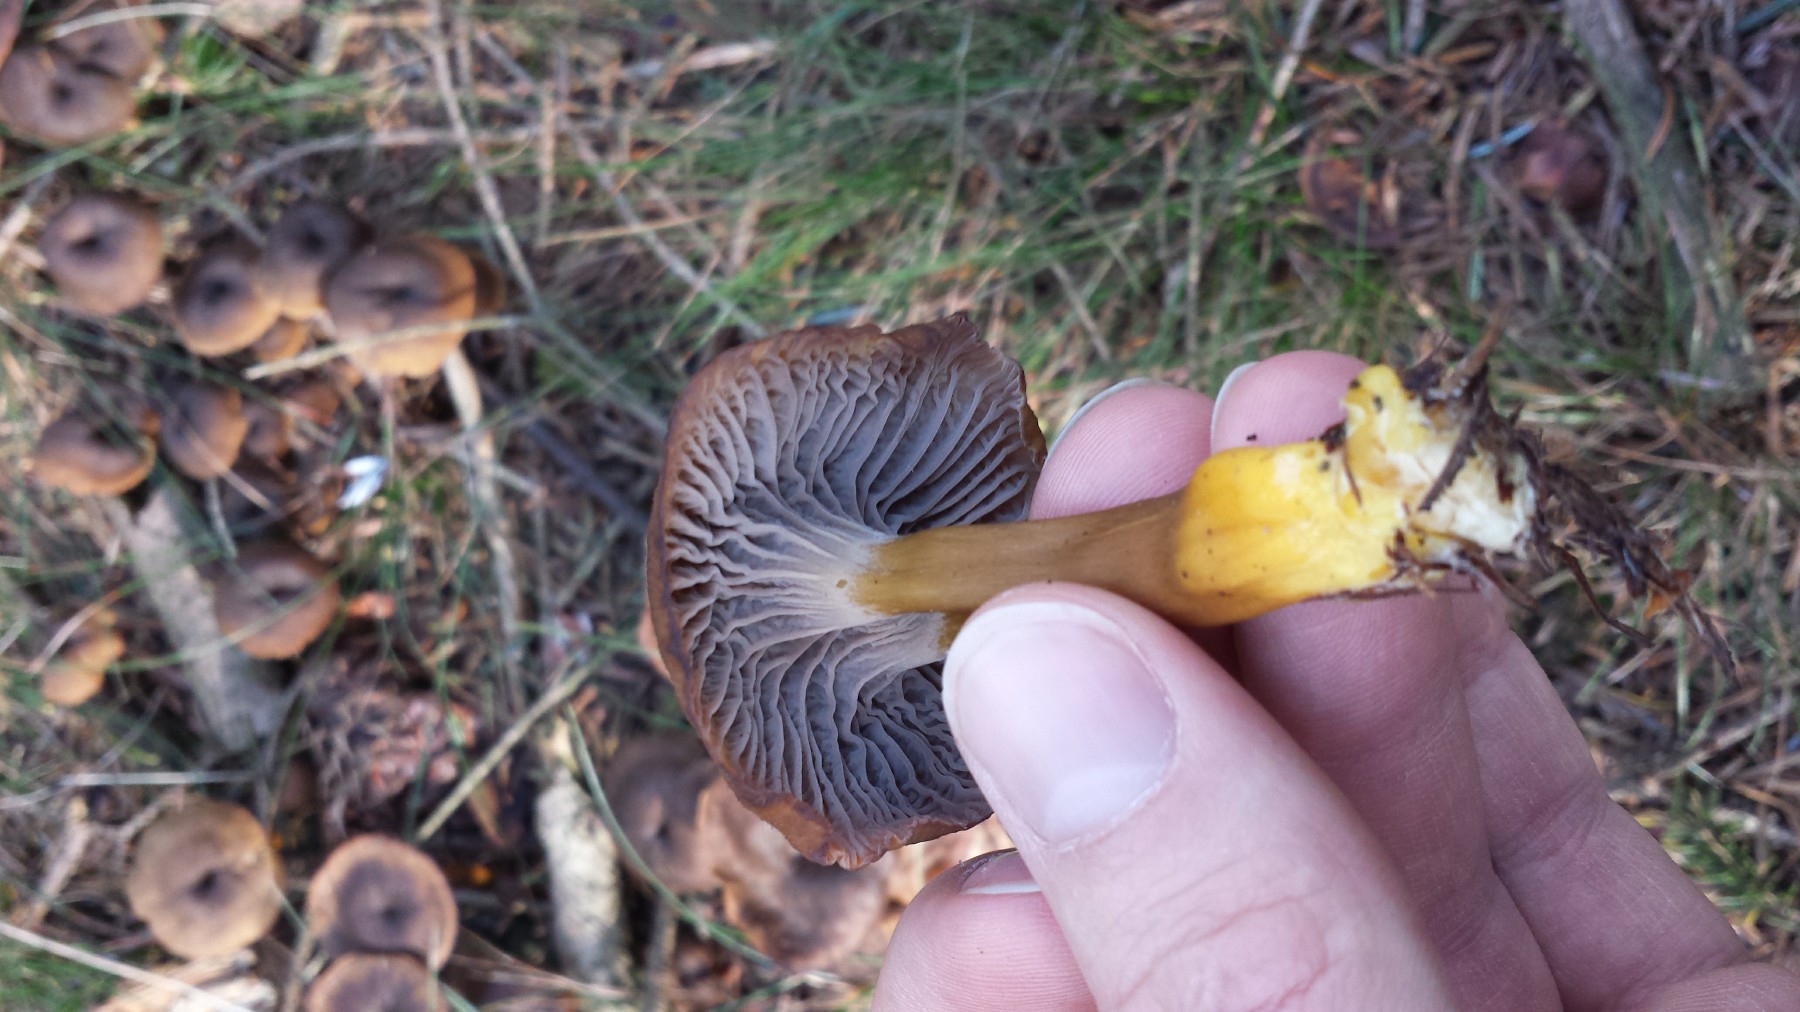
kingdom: Fungi
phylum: Basidiomycota
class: Agaricomycetes
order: Cantharellales
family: Hydnaceae
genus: Craterellus
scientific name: Craterellus tubaeformis
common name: tragt-kantarel
